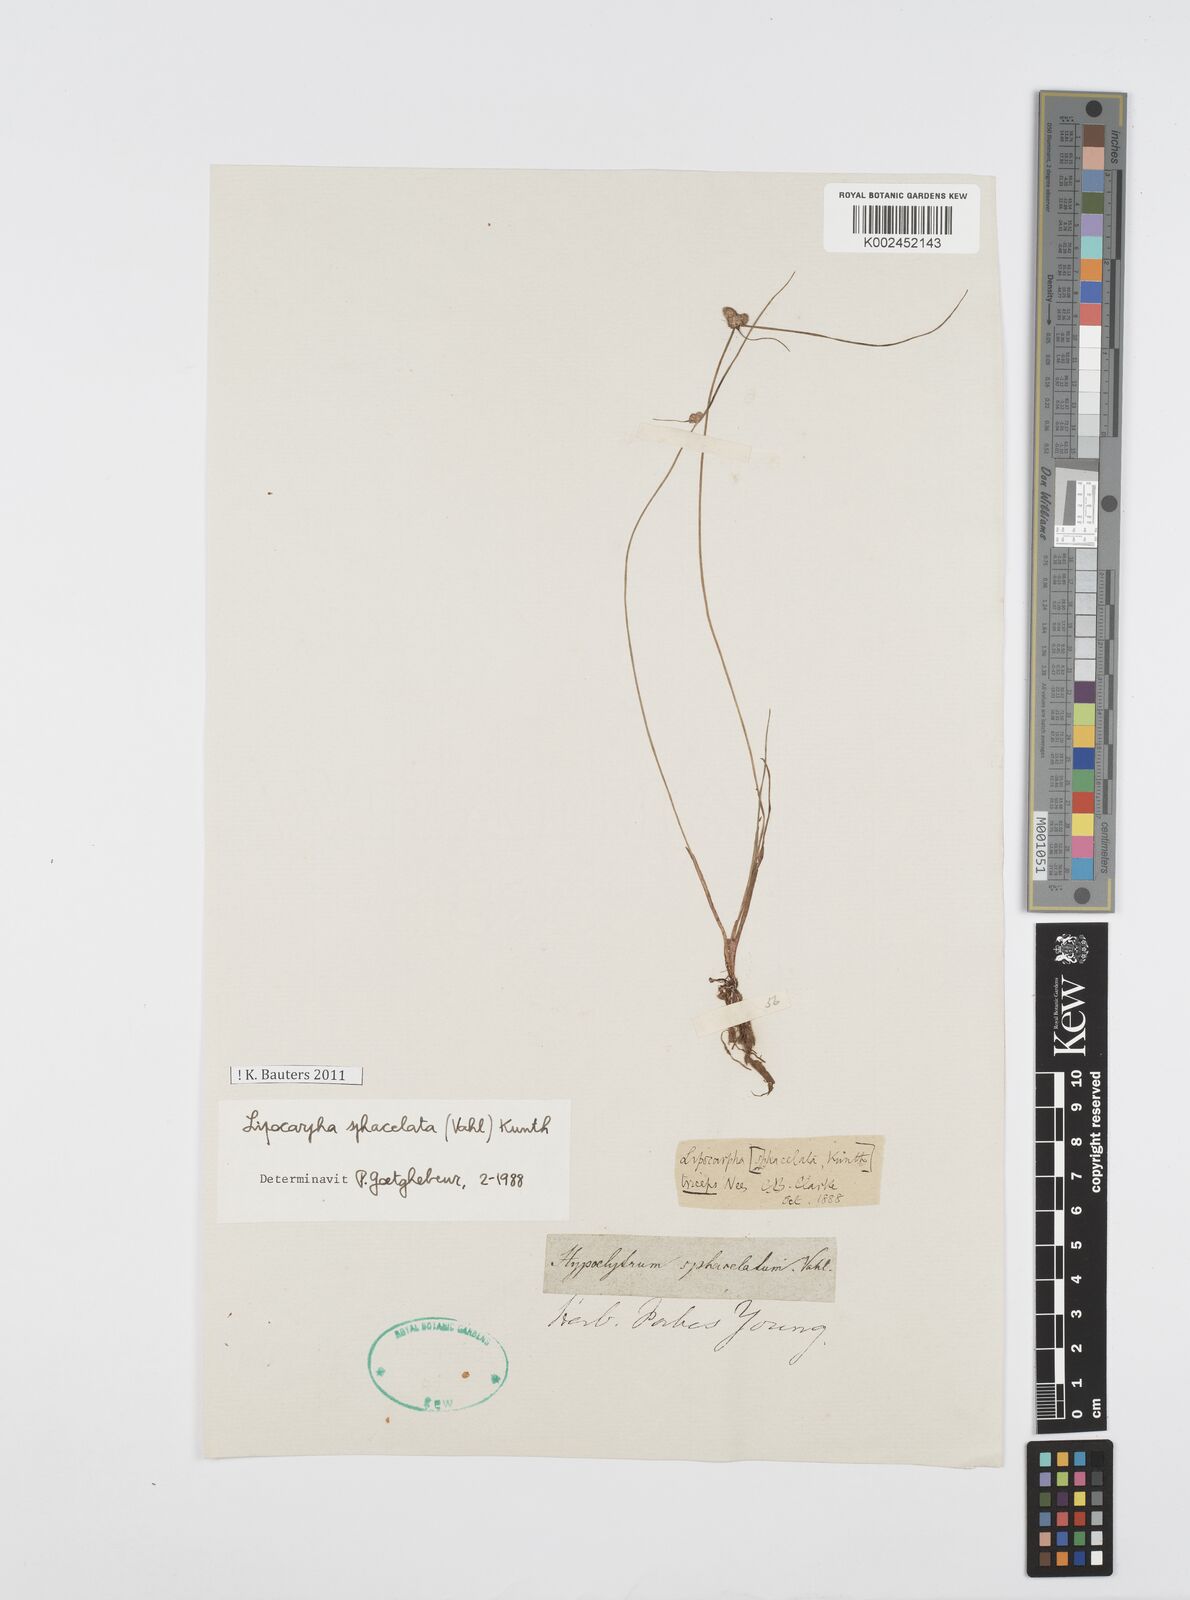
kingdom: Plantae
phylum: Tracheophyta
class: Liliopsida
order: Poales
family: Cyperaceae
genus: Cyperus
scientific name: Cyperus sphacelatus
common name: Roadside flatsedge
